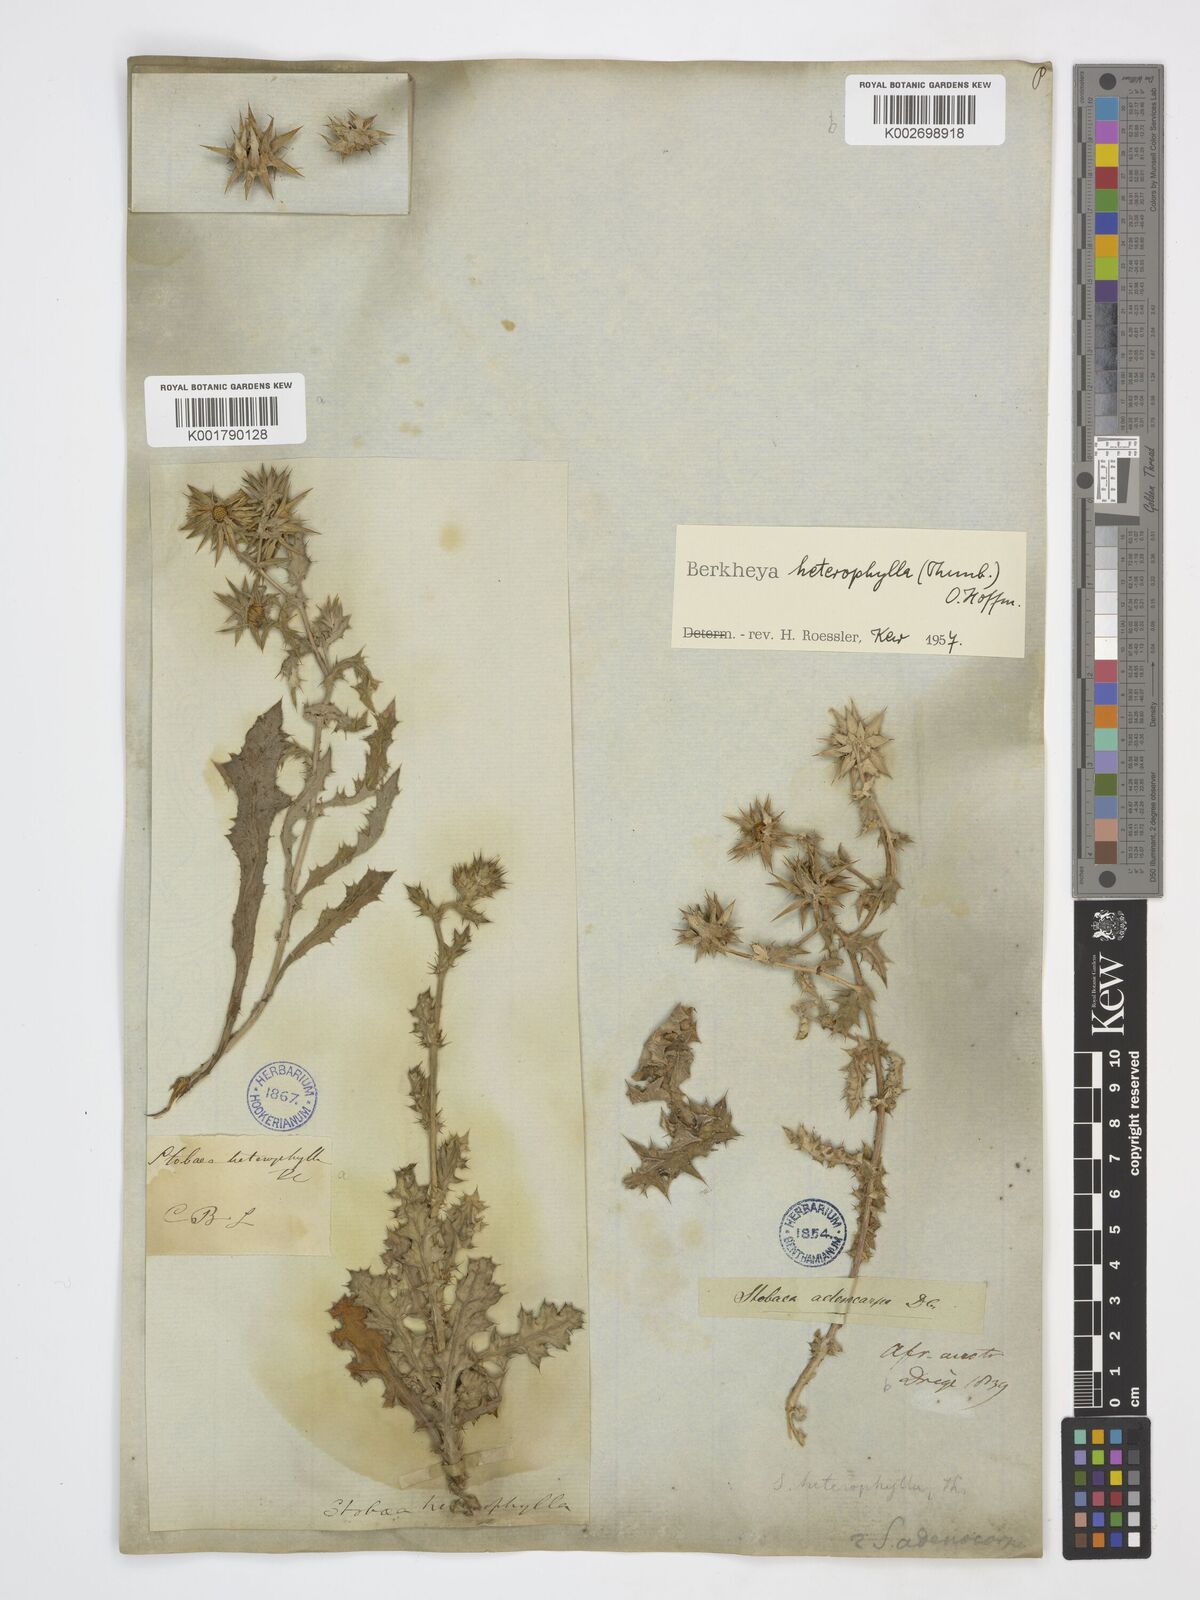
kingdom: Plantae
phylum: Tracheophyta
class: Magnoliopsida
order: Asterales
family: Asteraceae
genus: Berkheya
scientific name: Berkheya heterophylla
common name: Prickly gousblom
